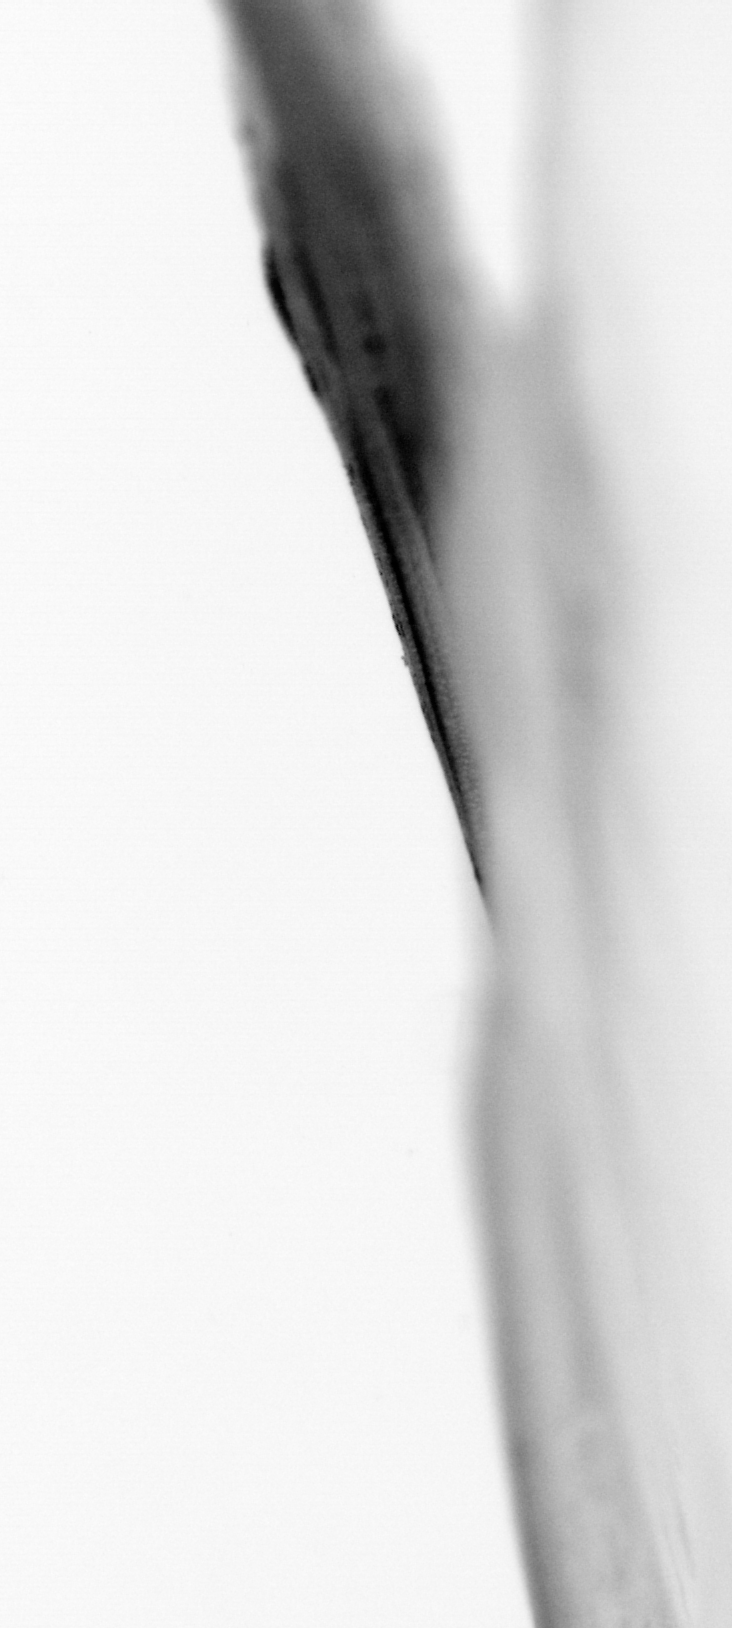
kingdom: Animalia
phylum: Chordata
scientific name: Chordata
